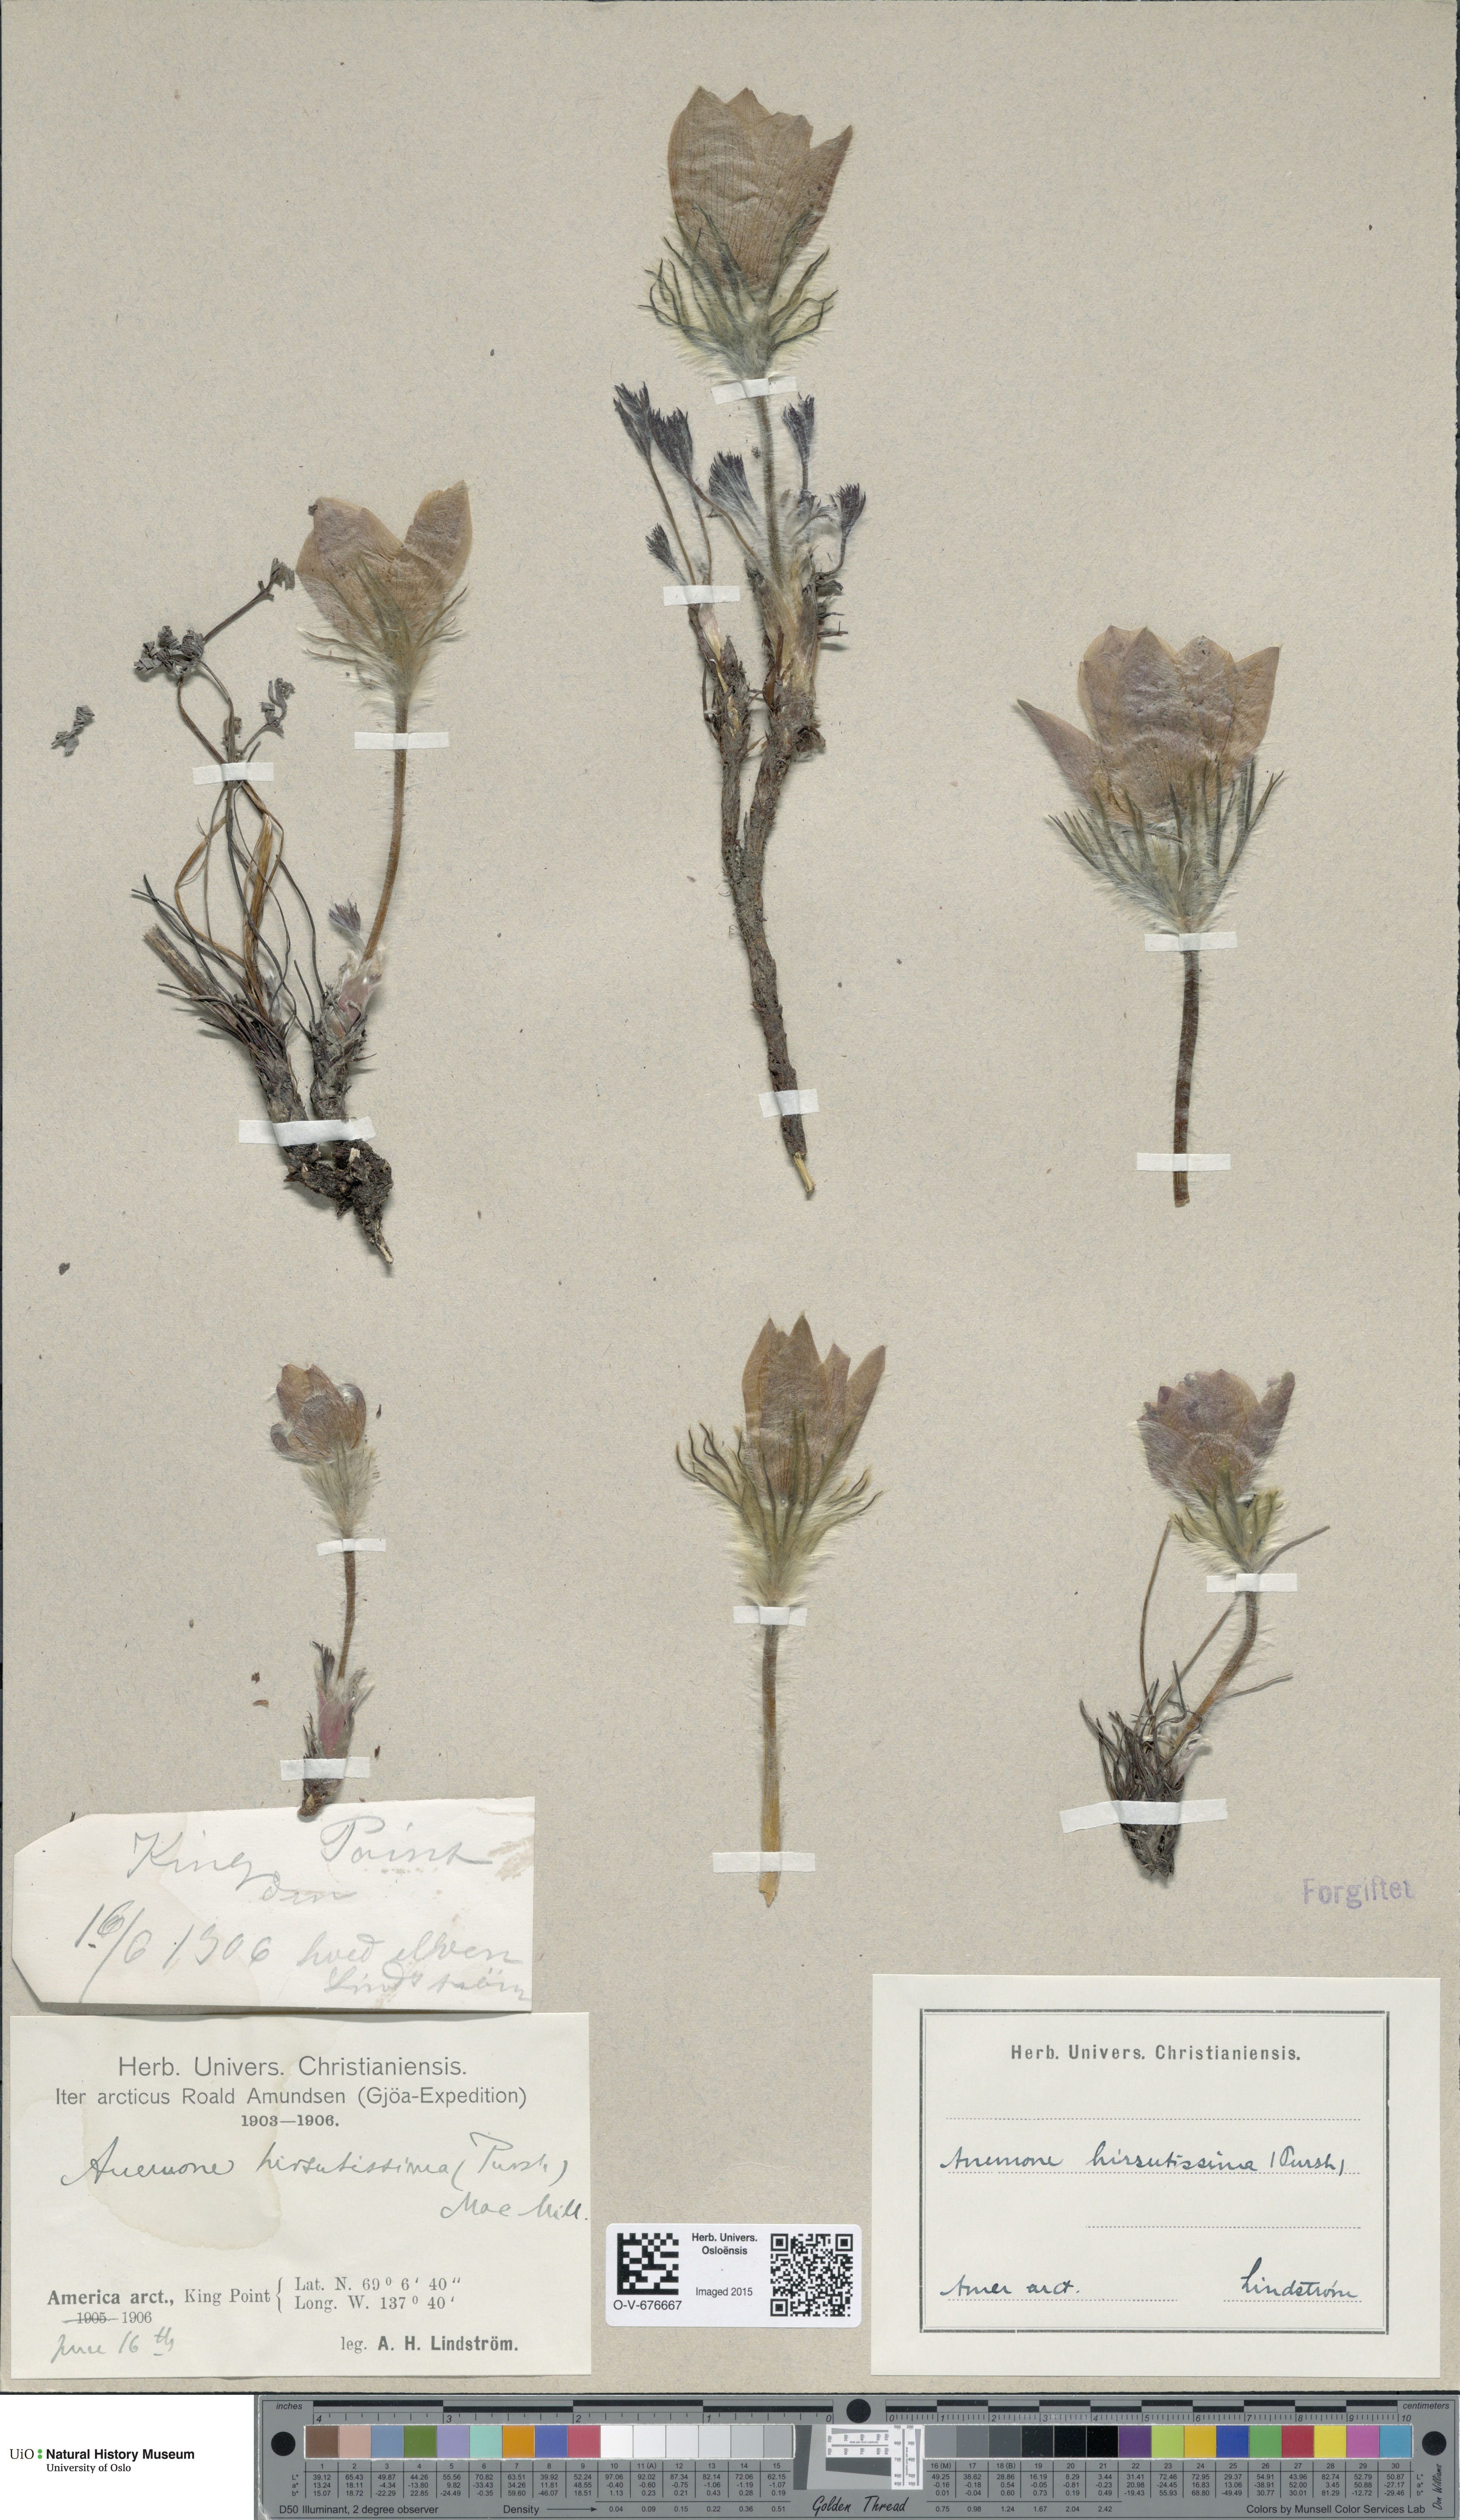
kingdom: Plantae
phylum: Tracheophyta
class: Magnoliopsida
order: Ranunculales
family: Ranunculaceae
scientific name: Ranunculaceae
